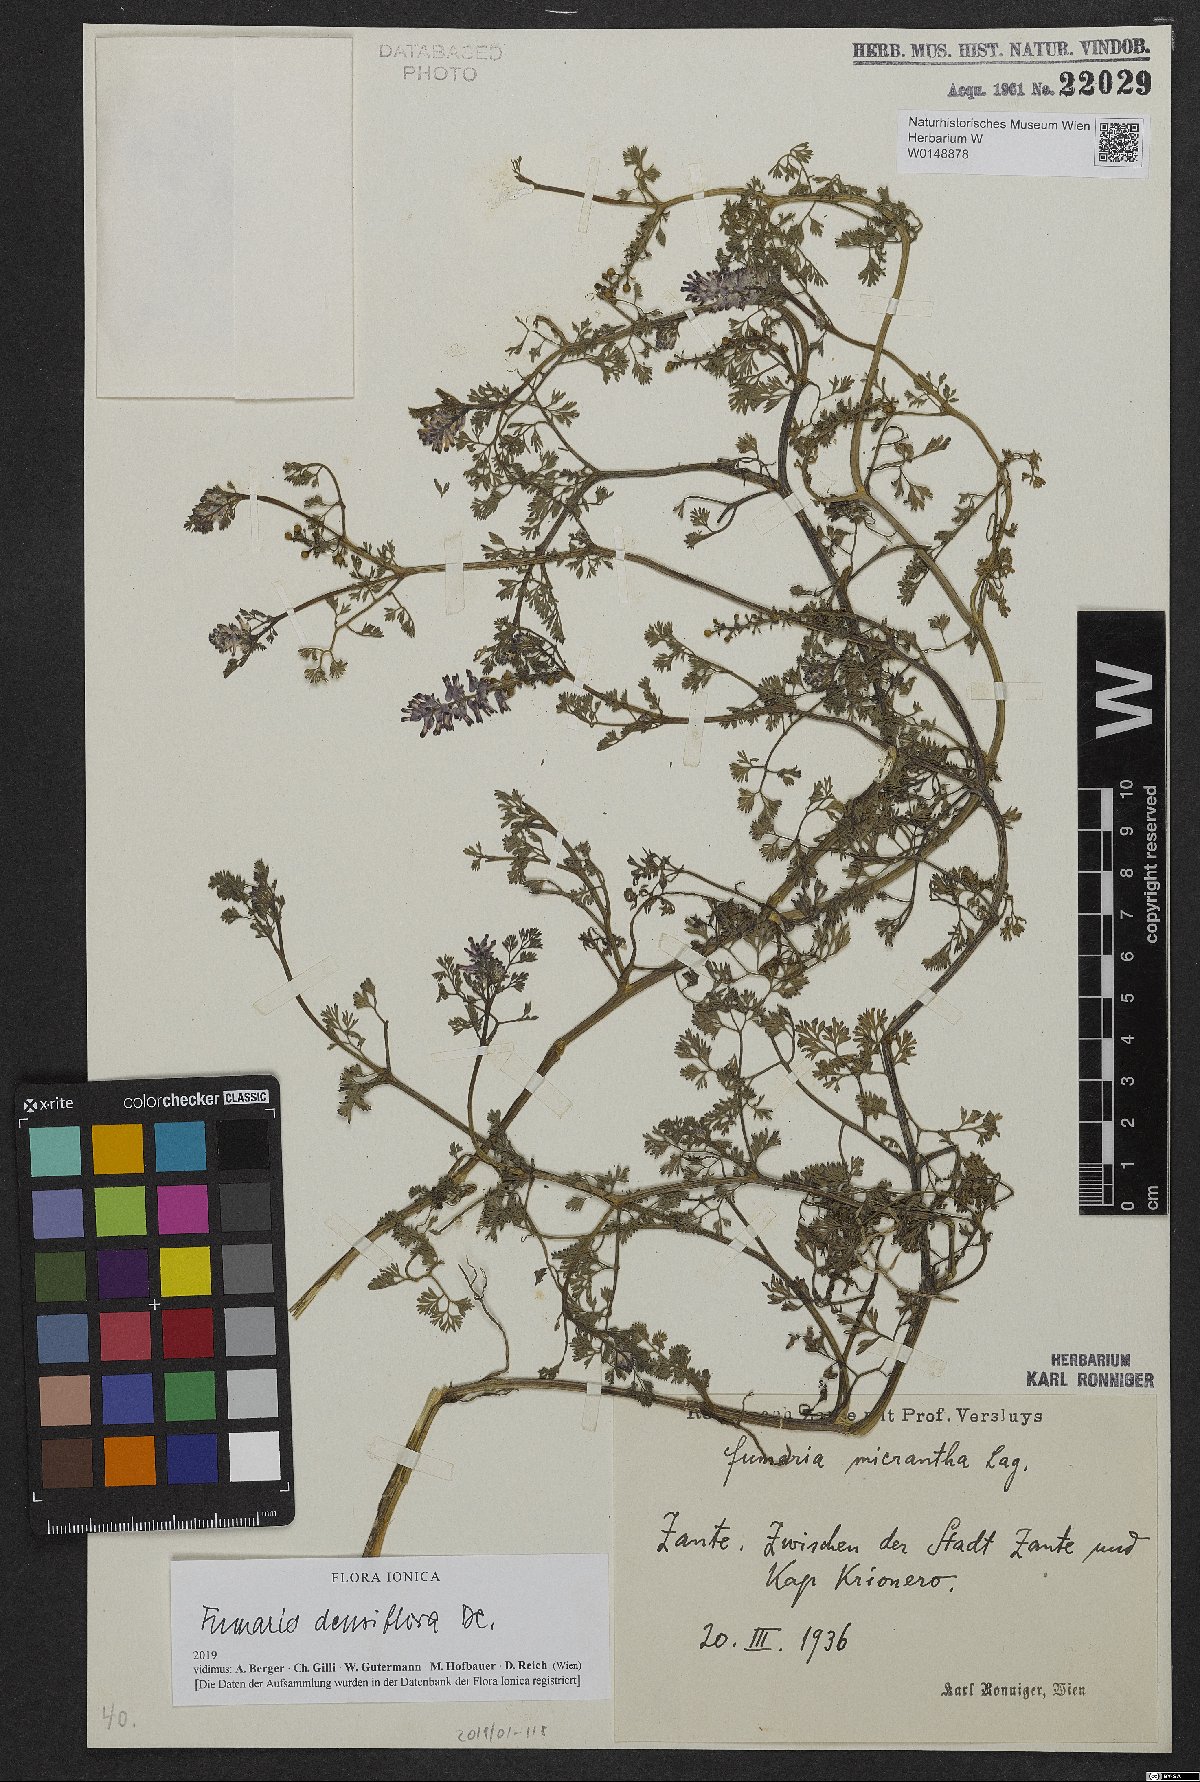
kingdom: Plantae
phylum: Tracheophyta
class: Magnoliopsida
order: Ranunculales
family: Papaveraceae
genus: Fumaria
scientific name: Fumaria densiflora
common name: Dense-flowered fumitory
